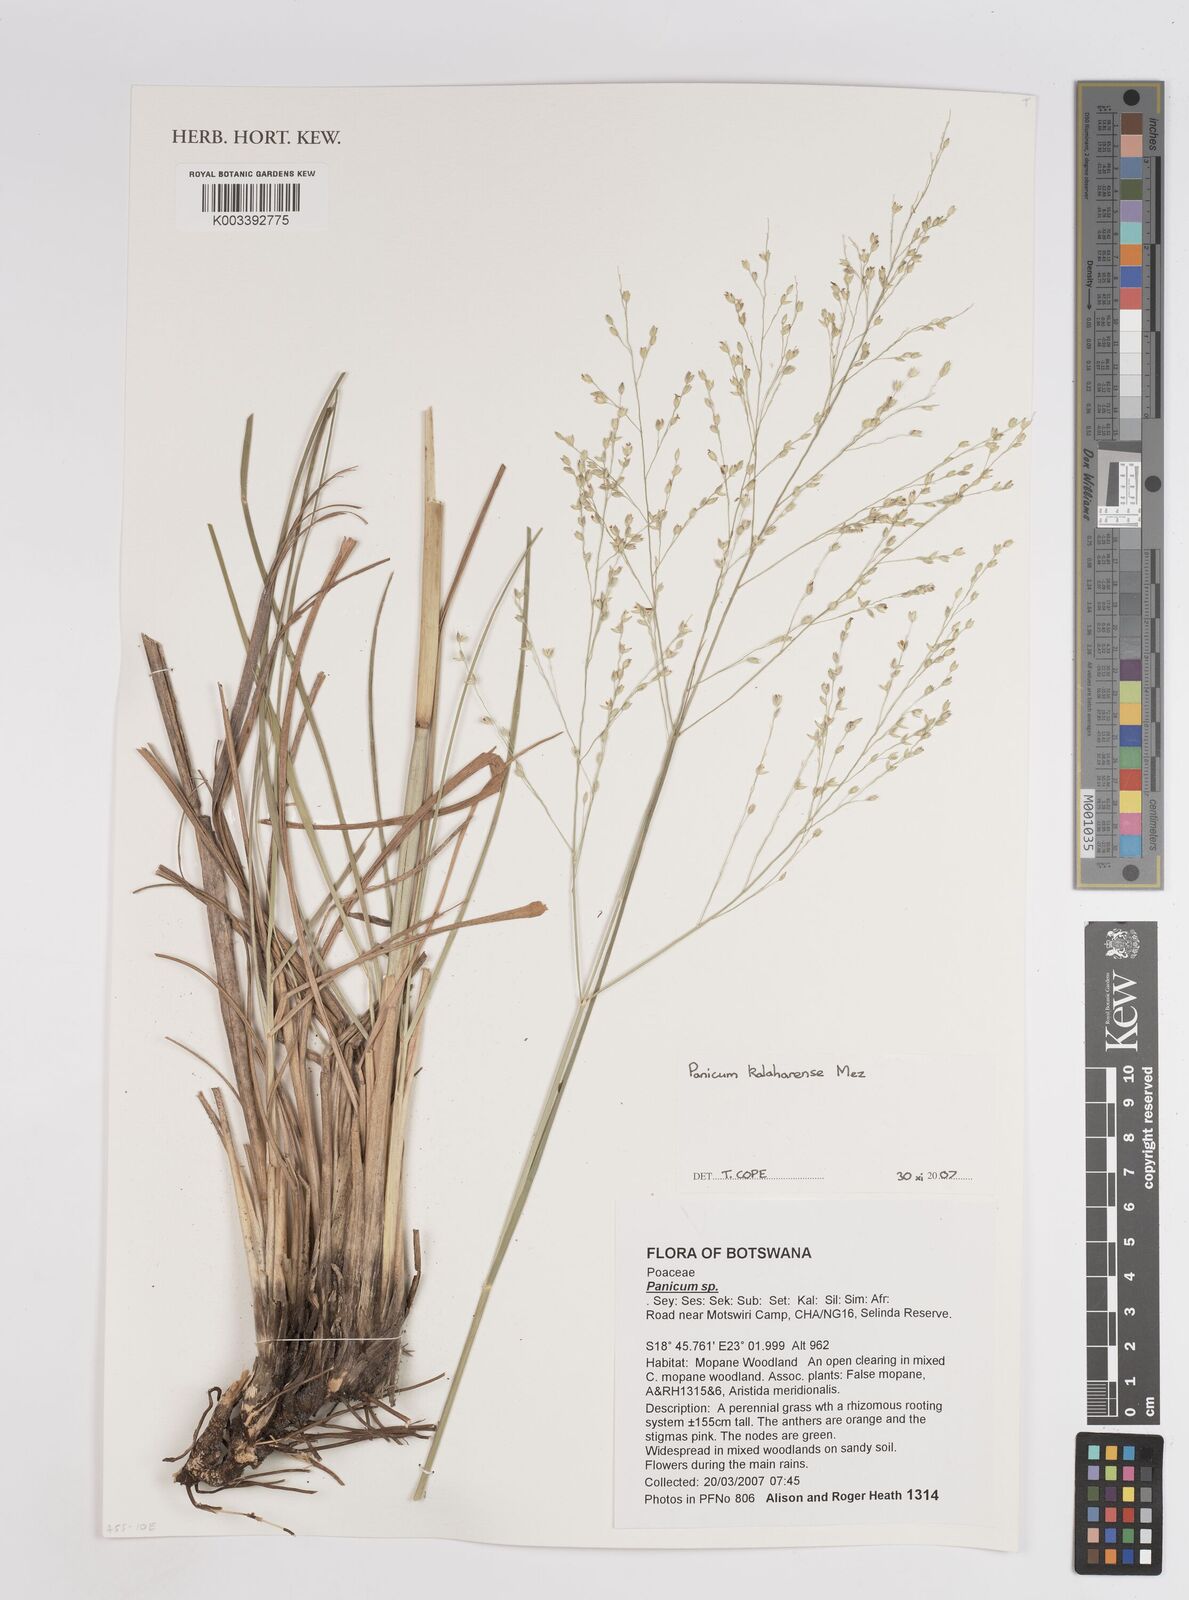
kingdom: Plantae
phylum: Tracheophyta
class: Liliopsida
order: Poales
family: Poaceae
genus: Panicum
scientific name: Panicum kalaharense
